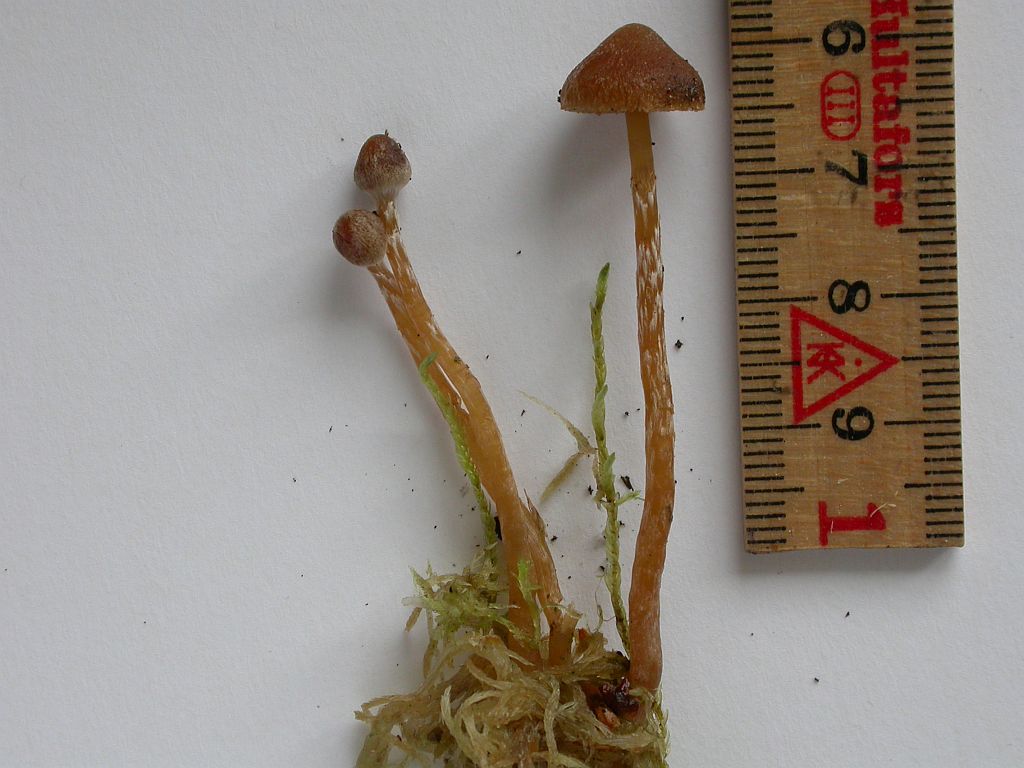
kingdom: Fungi
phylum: Basidiomycota
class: Agaricomycetes
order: Agaricales
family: Hymenogastraceae
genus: Galerina
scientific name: Galerina paludosa
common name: mose-hjelmhat
